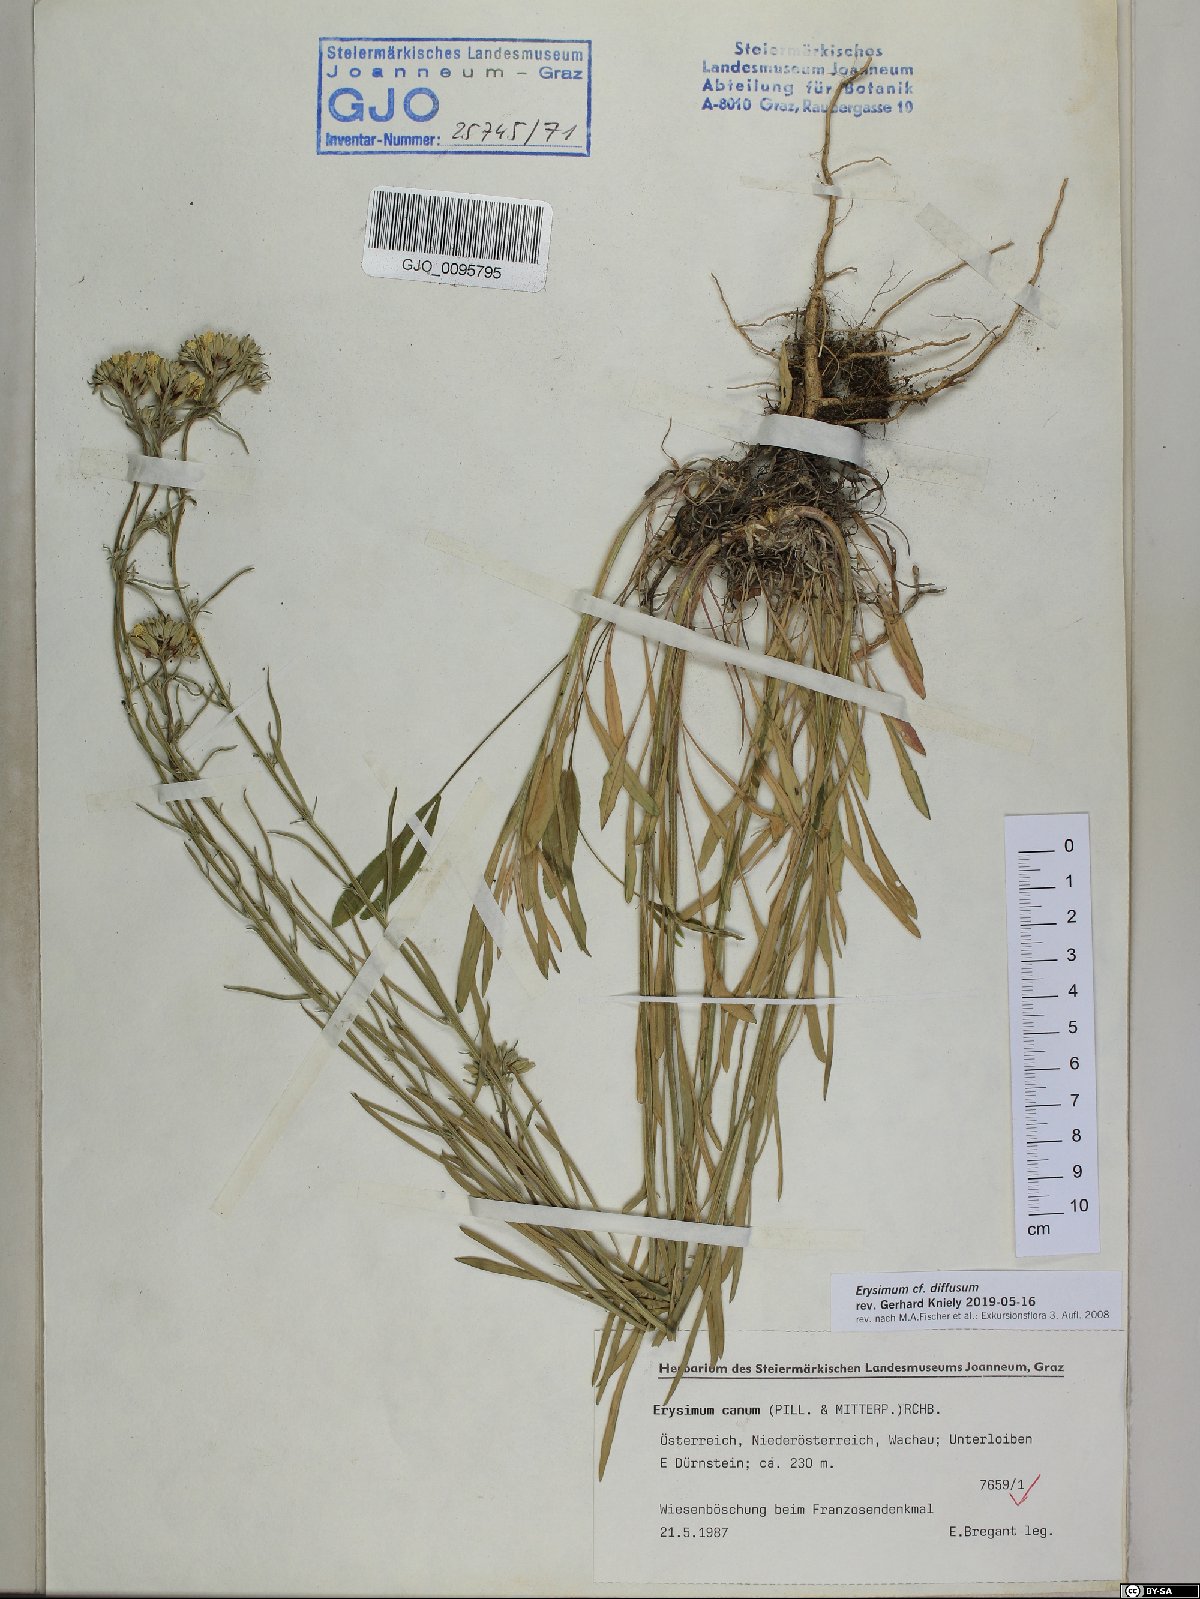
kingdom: Plantae
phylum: Tracheophyta
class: Magnoliopsida
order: Brassicales
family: Brassicaceae
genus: Erysimum
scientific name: Erysimum diffusum
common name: Diffuse wallflower
